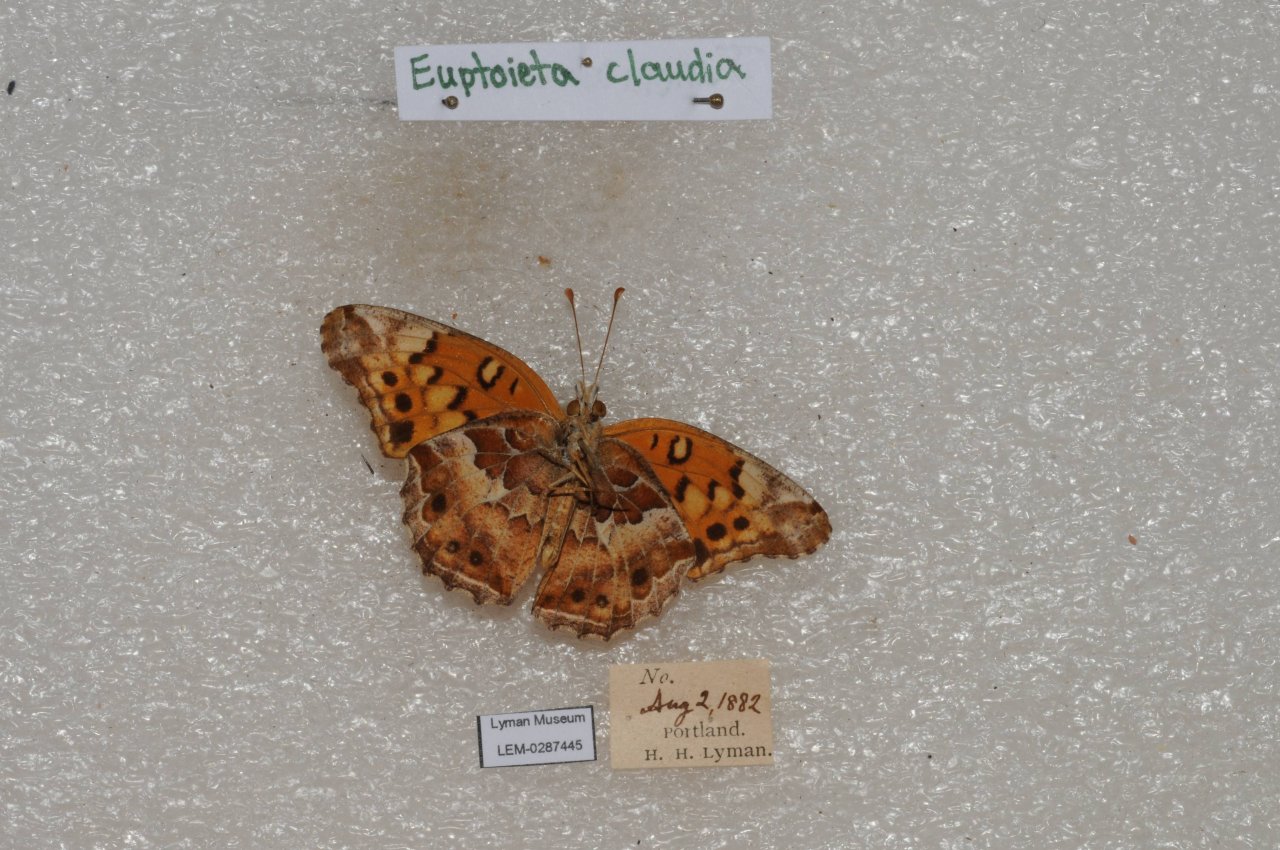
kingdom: Animalia
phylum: Arthropoda
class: Insecta
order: Lepidoptera
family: Nymphalidae
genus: Euptoieta
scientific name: Euptoieta claudia
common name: Variegated Fritillary
